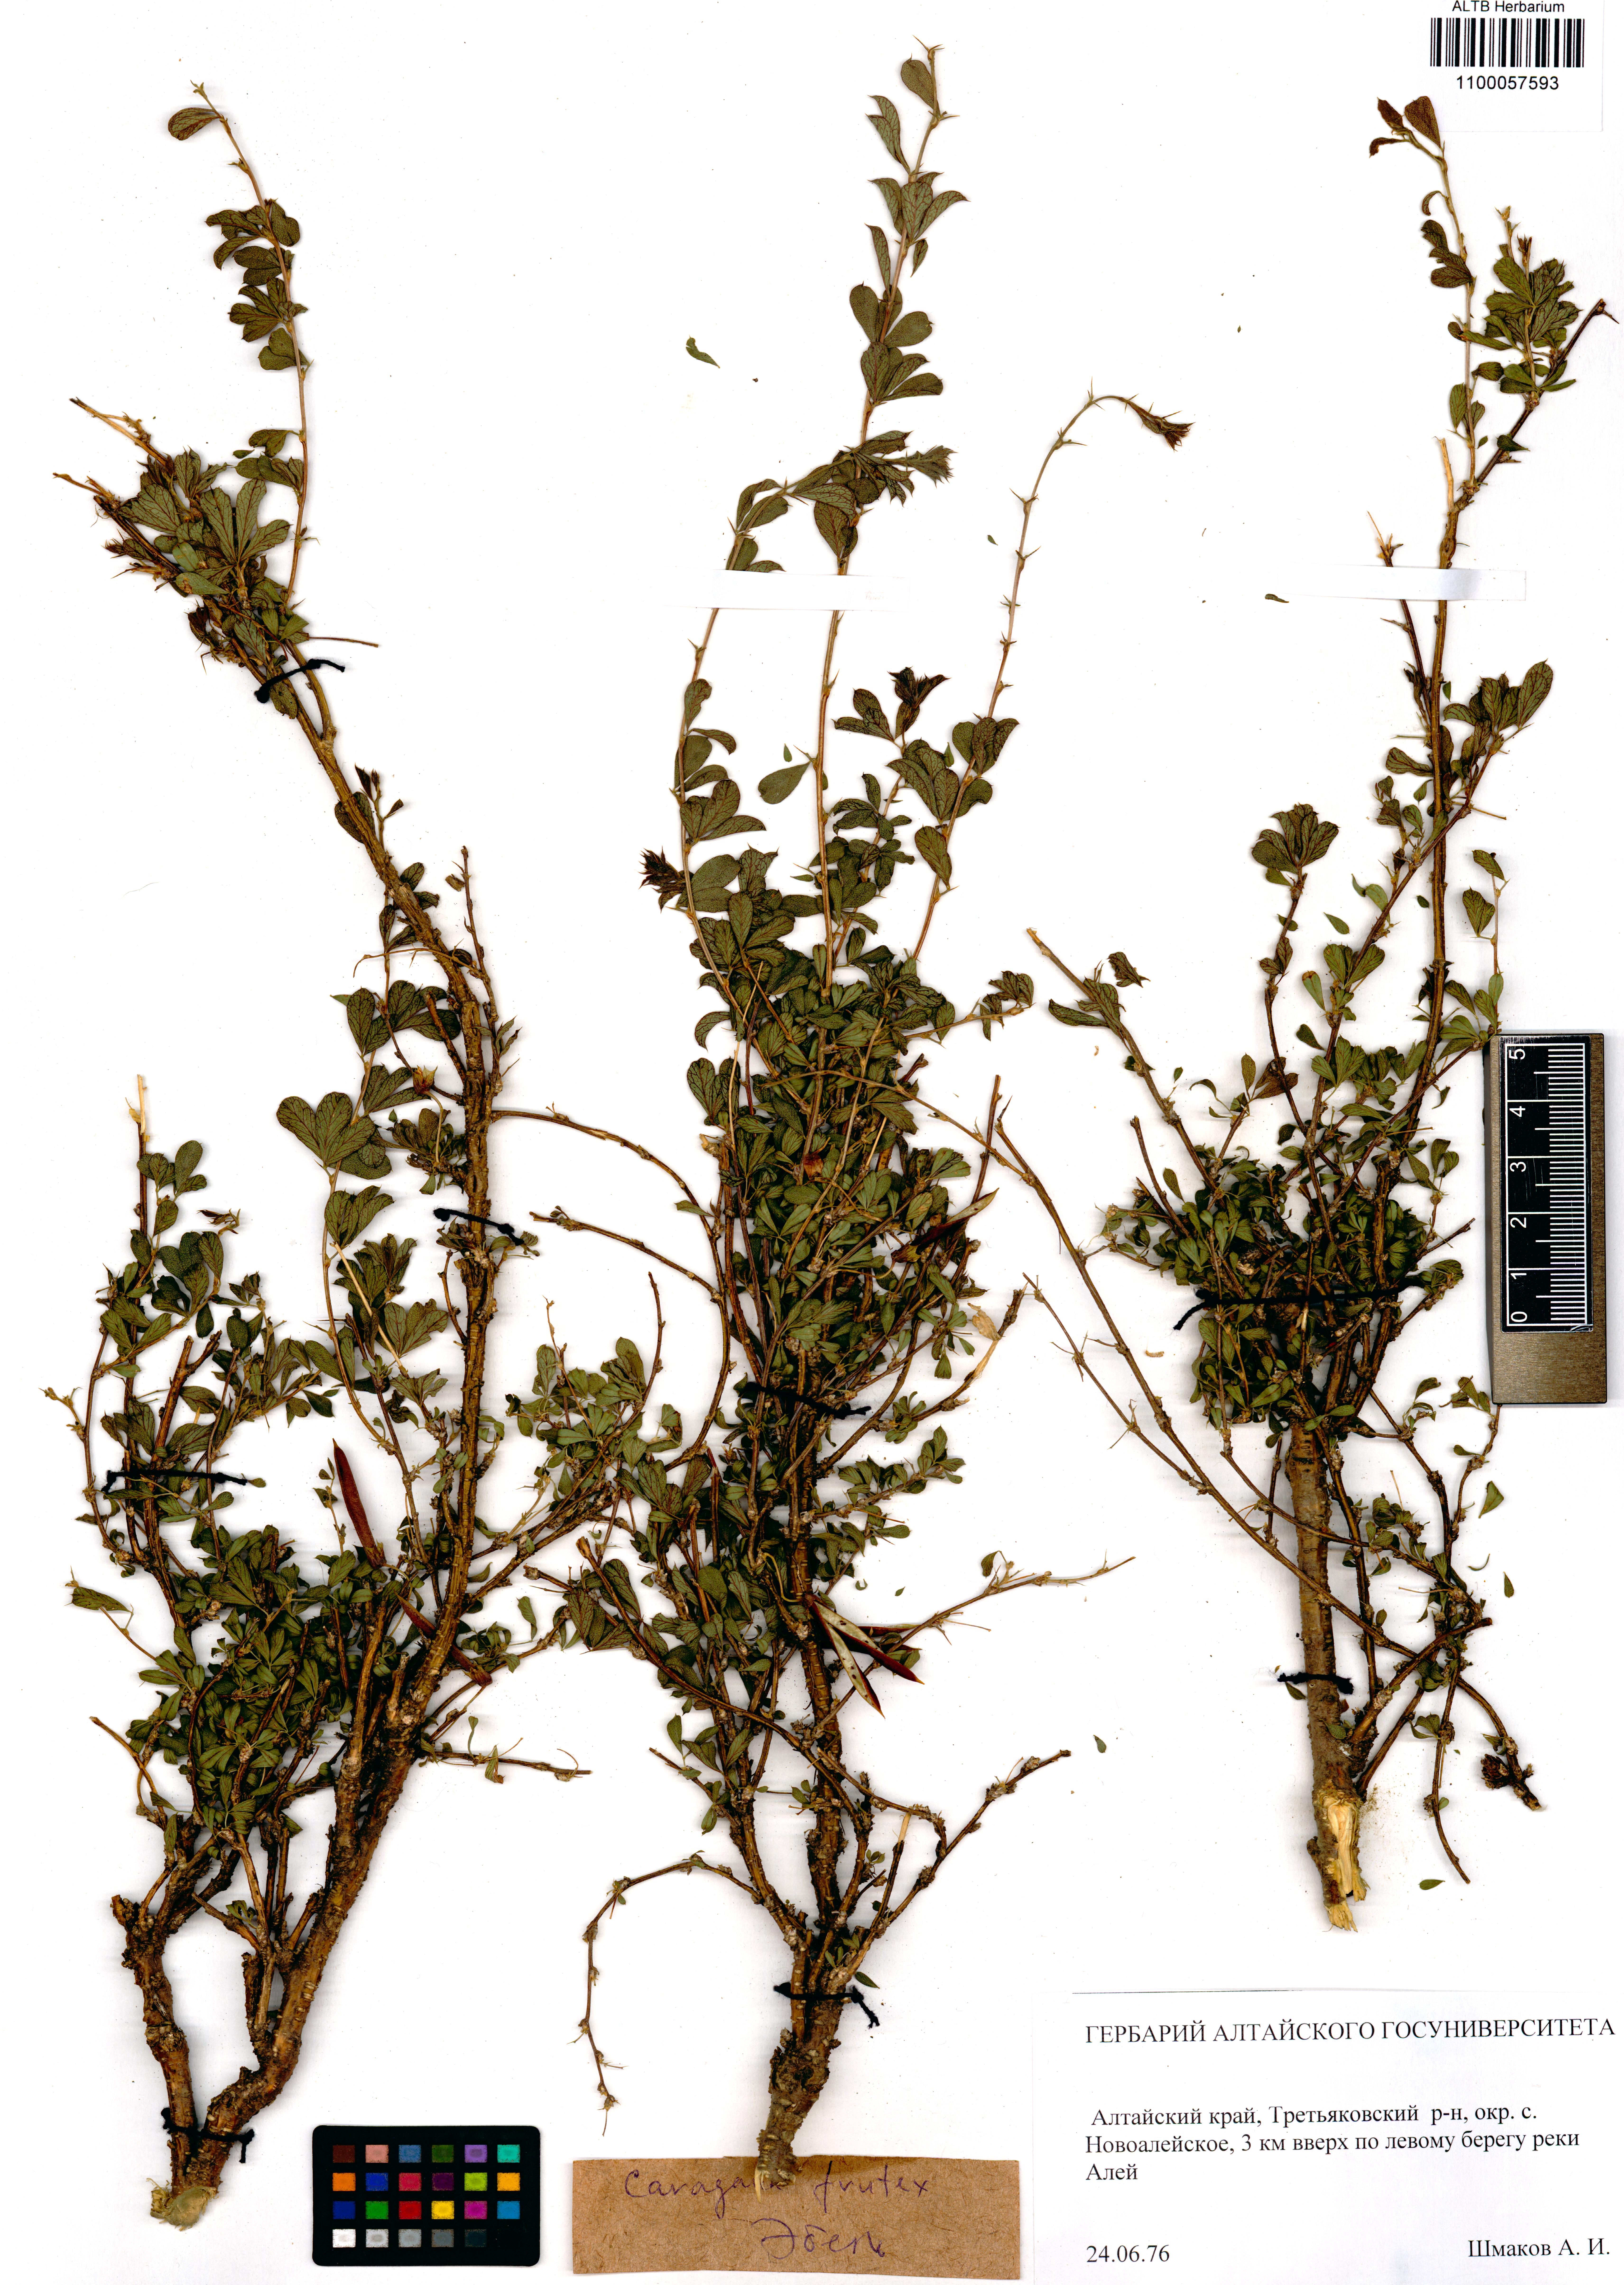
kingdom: Plantae
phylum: Tracheophyta
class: Magnoliopsida
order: Fabales
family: Fabaceae
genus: Caragana
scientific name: Caragana frutex
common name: Russian peashrub
